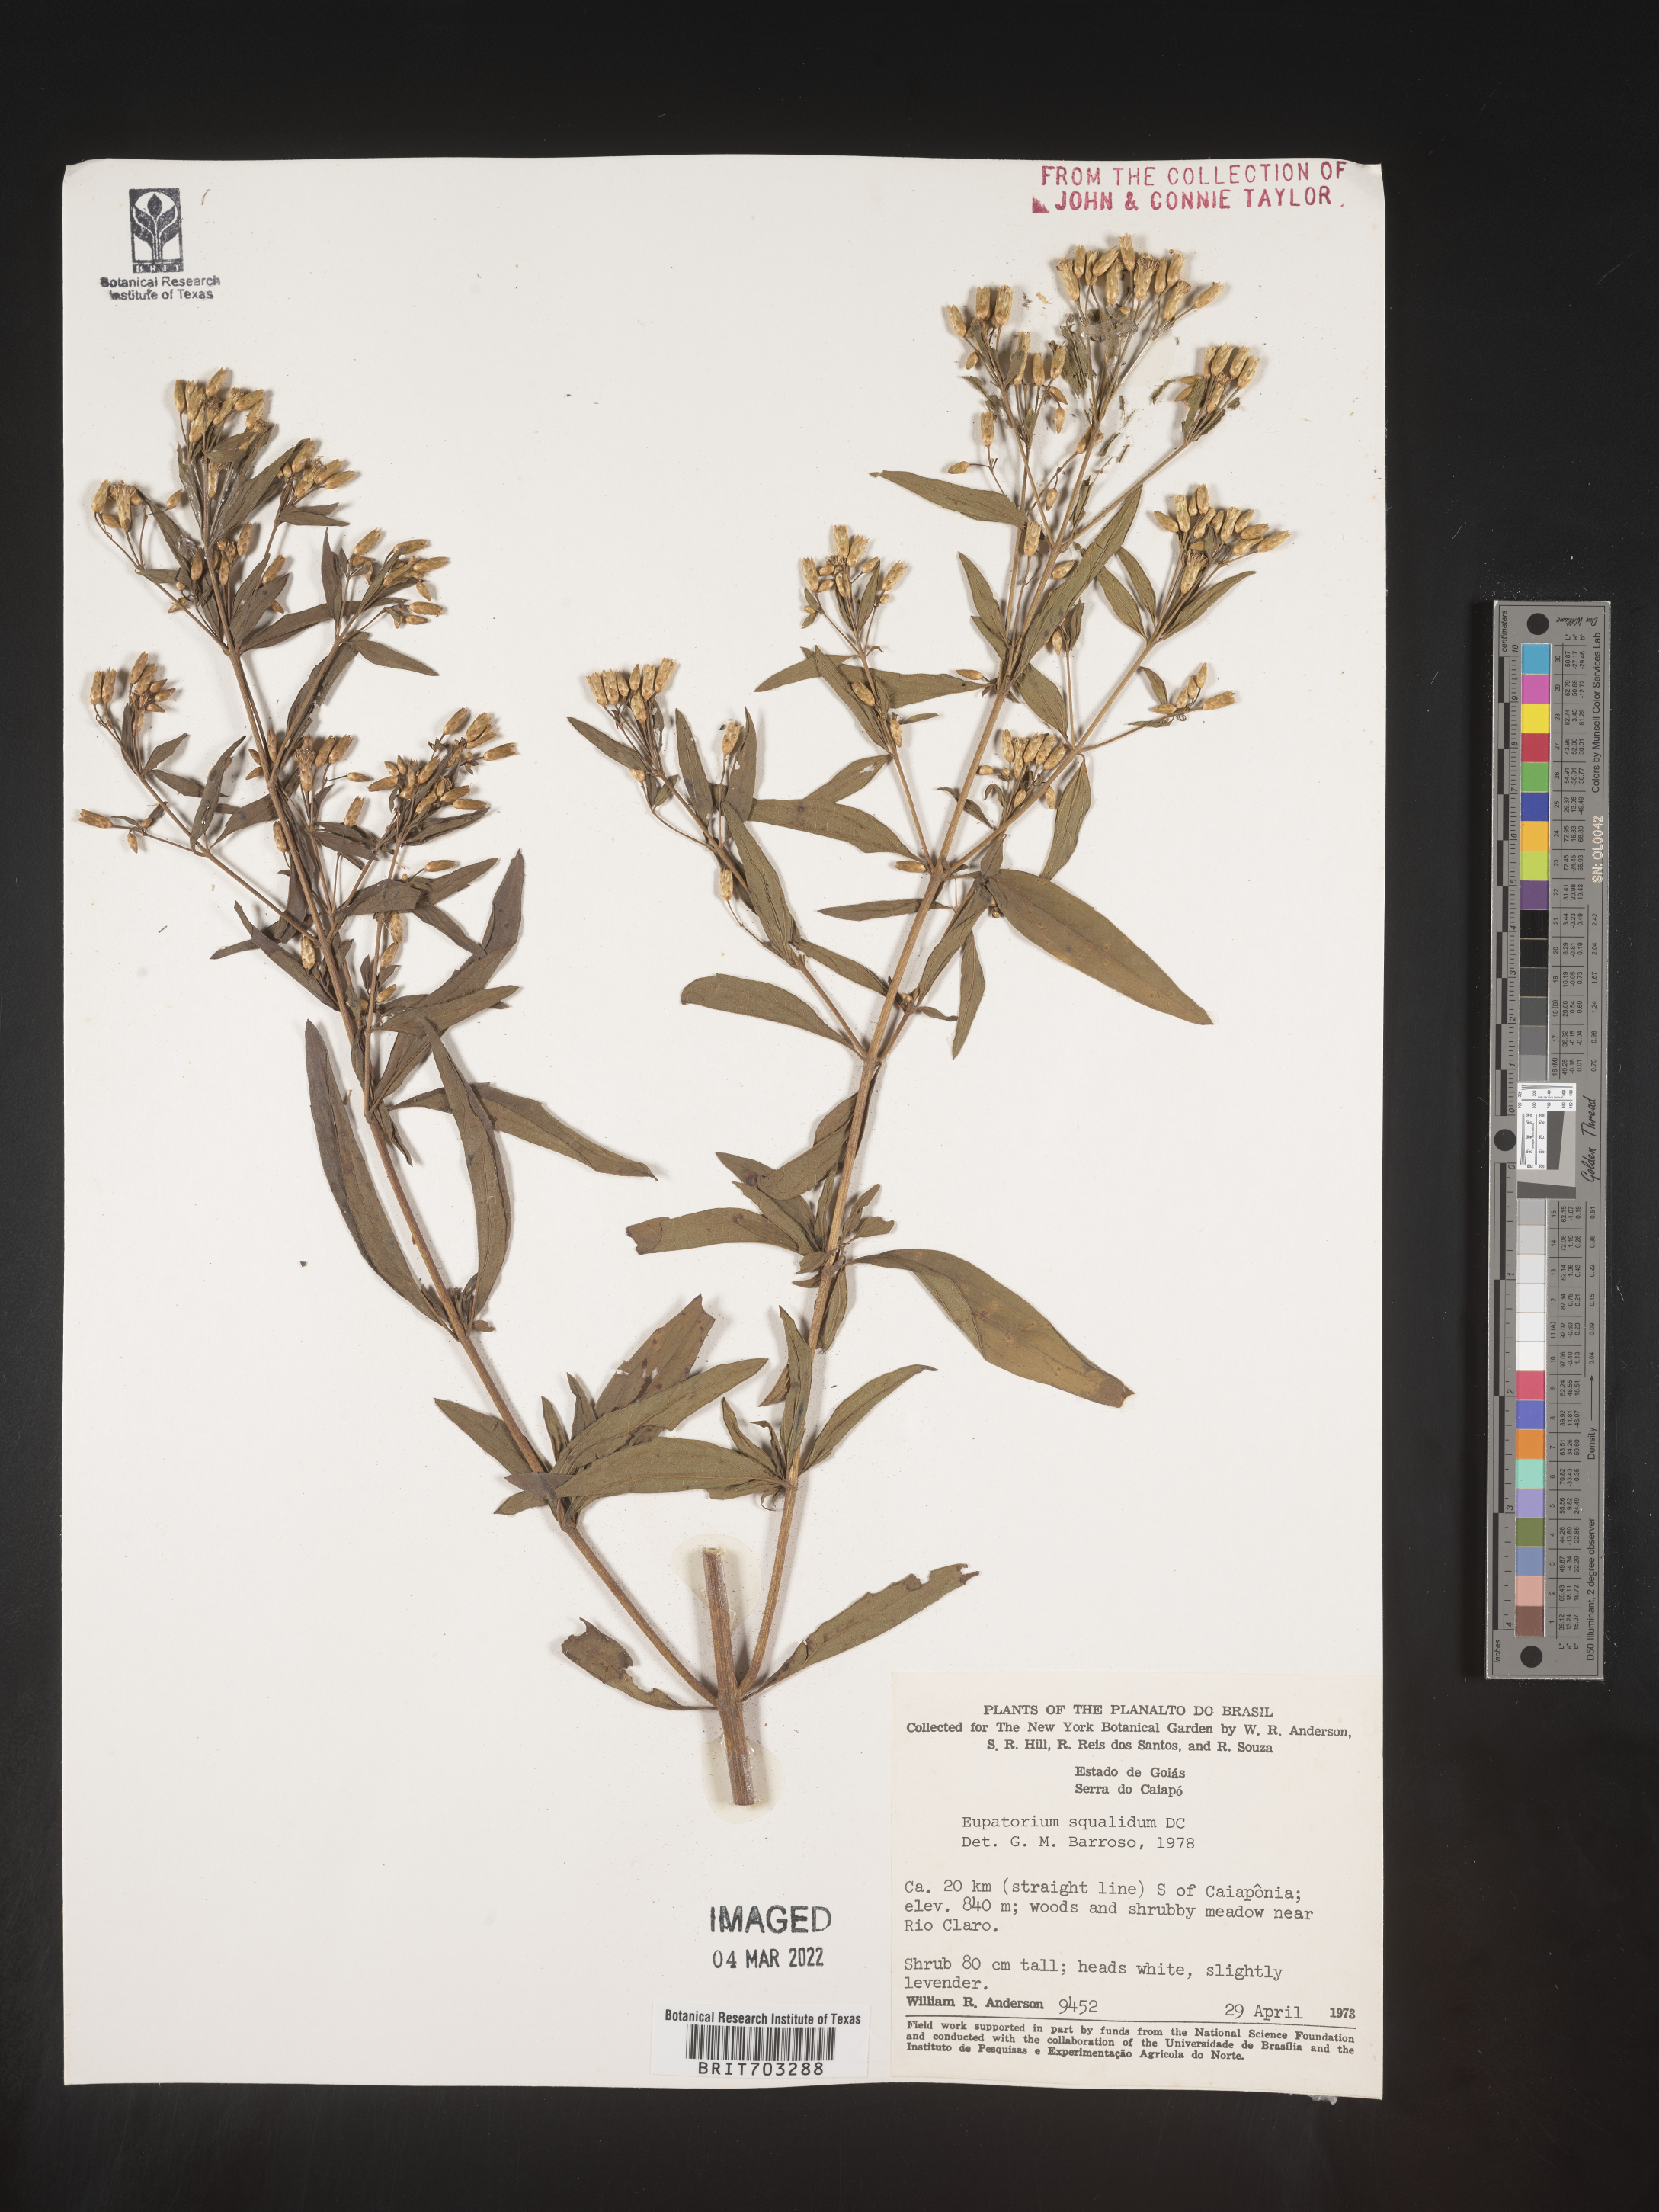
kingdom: Plantae
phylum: Tracheophyta
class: Magnoliopsida
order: Asterales
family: Asteraceae
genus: Eupatorium
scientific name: Eupatorium
